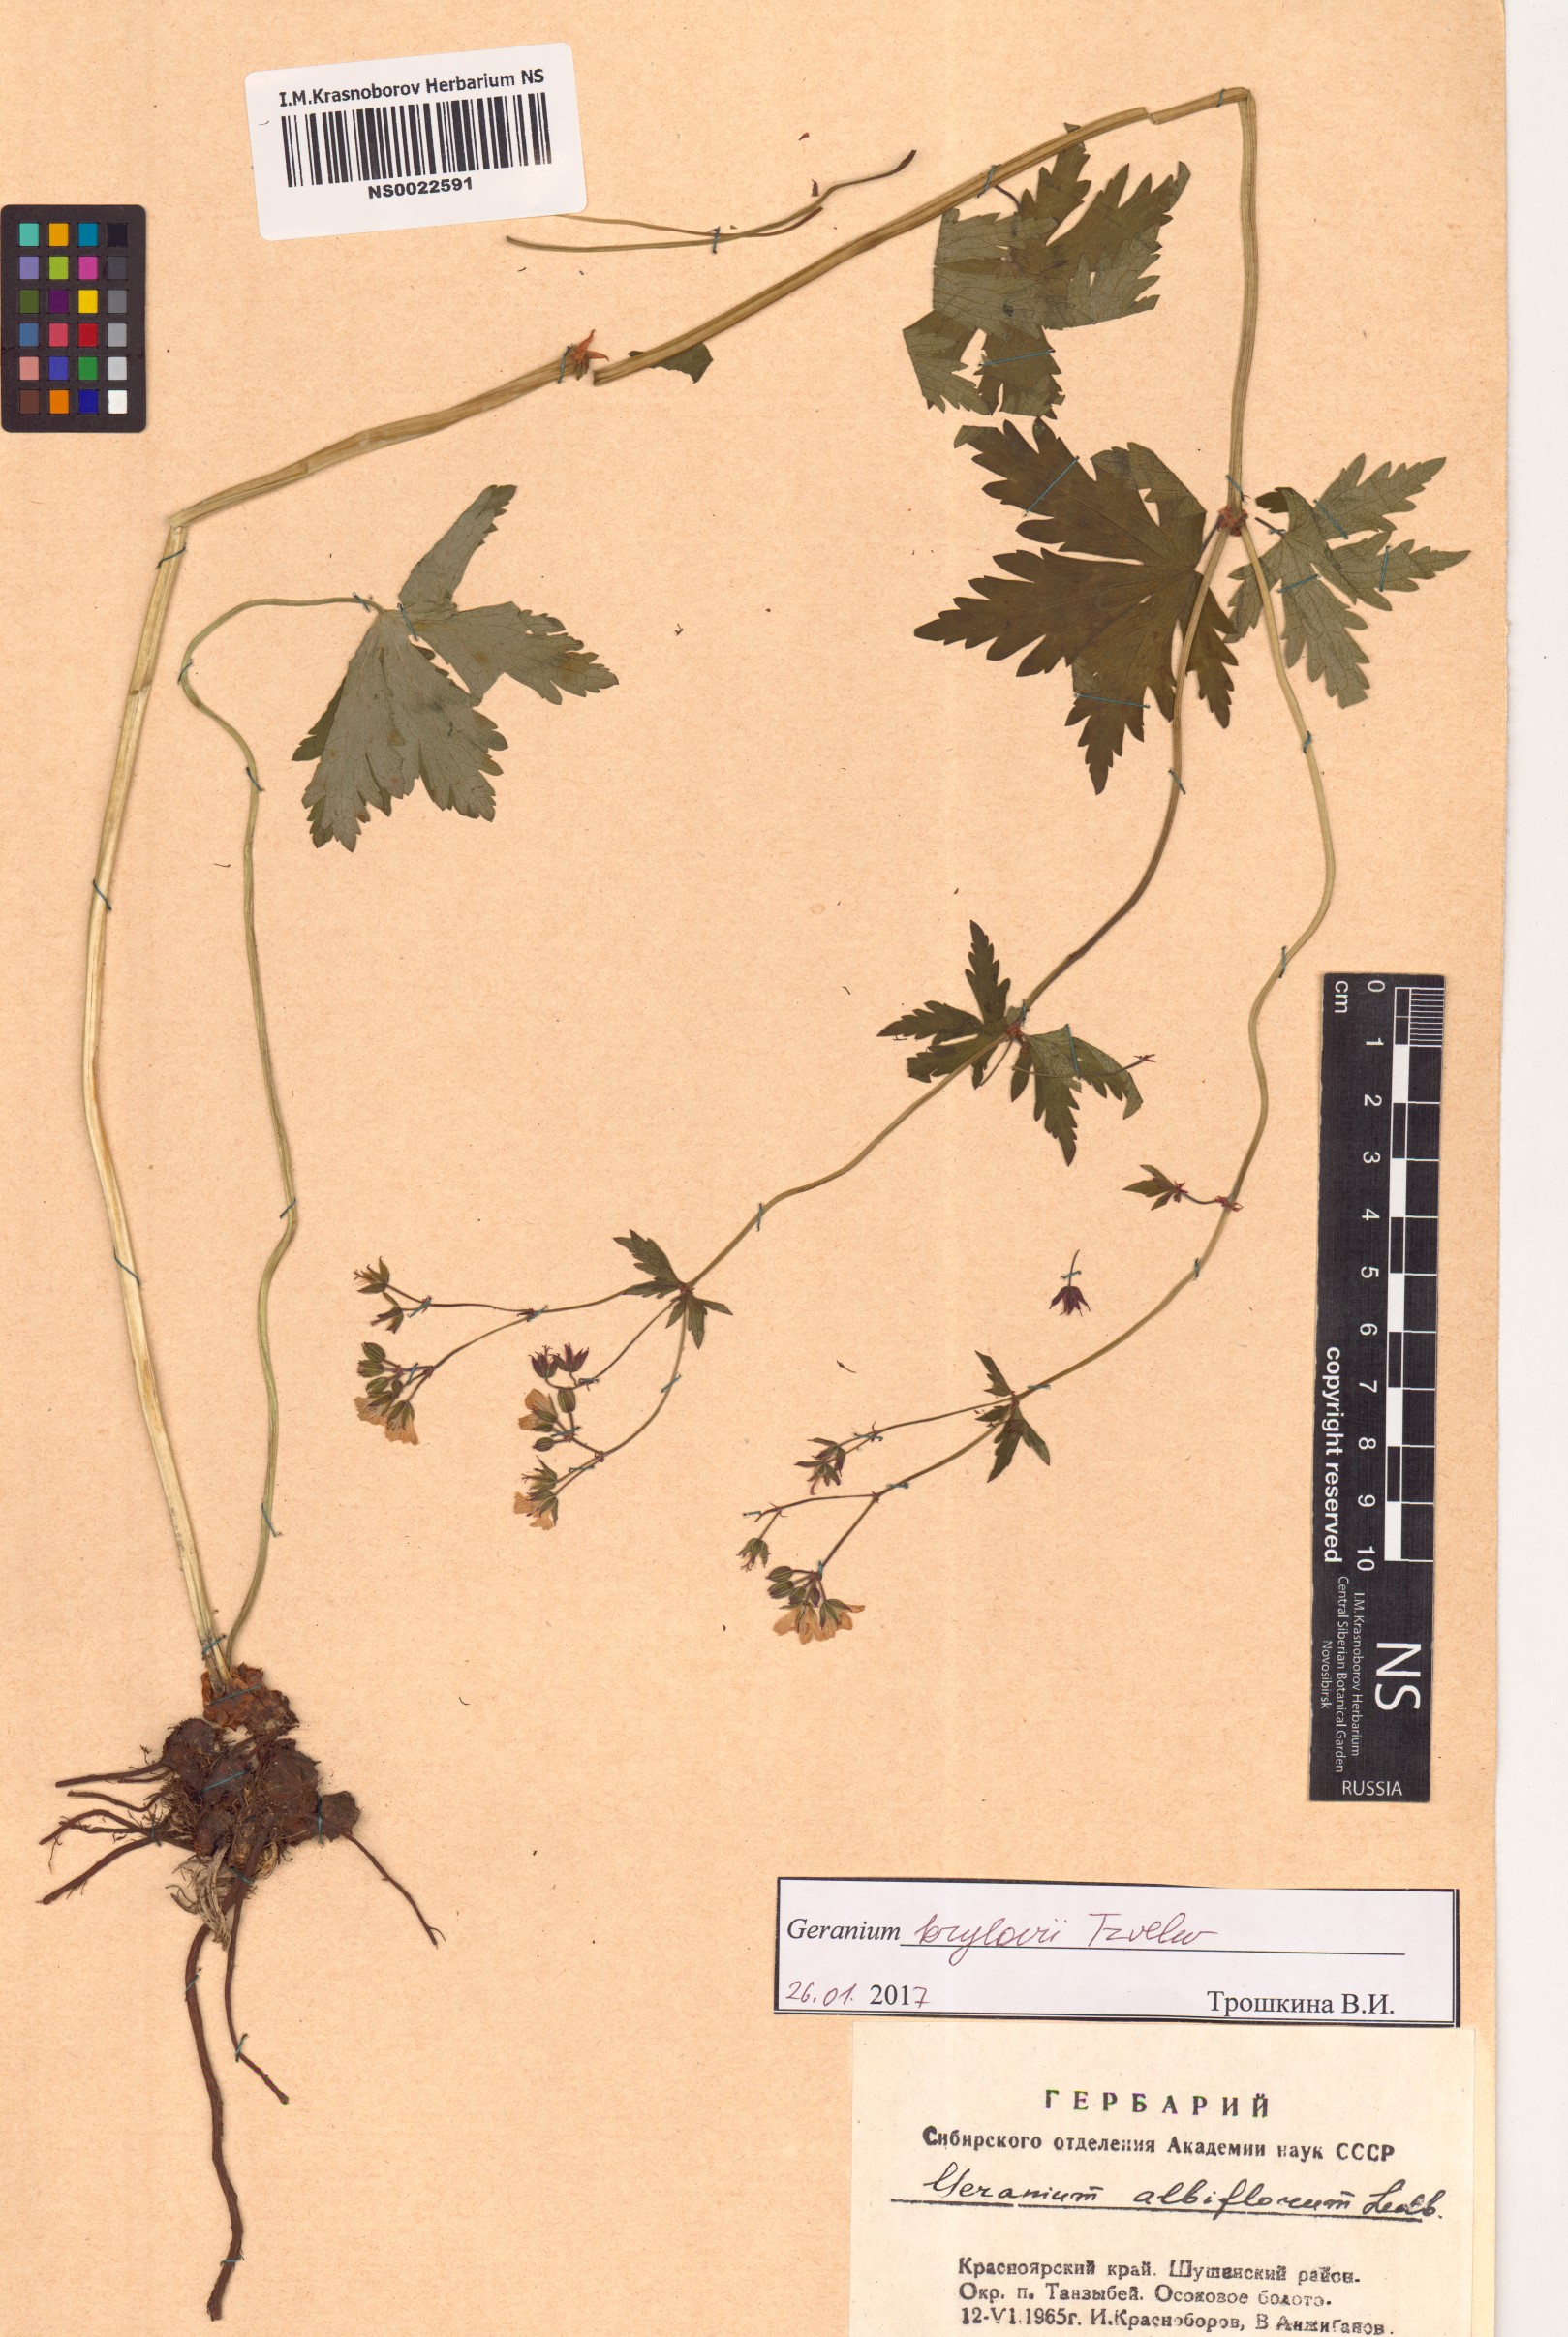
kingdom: Plantae
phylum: Tracheophyta
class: Magnoliopsida
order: Geraniales
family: Geraniaceae
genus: Geranium
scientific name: Geranium sylvaticum
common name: Wood crane's-bill
